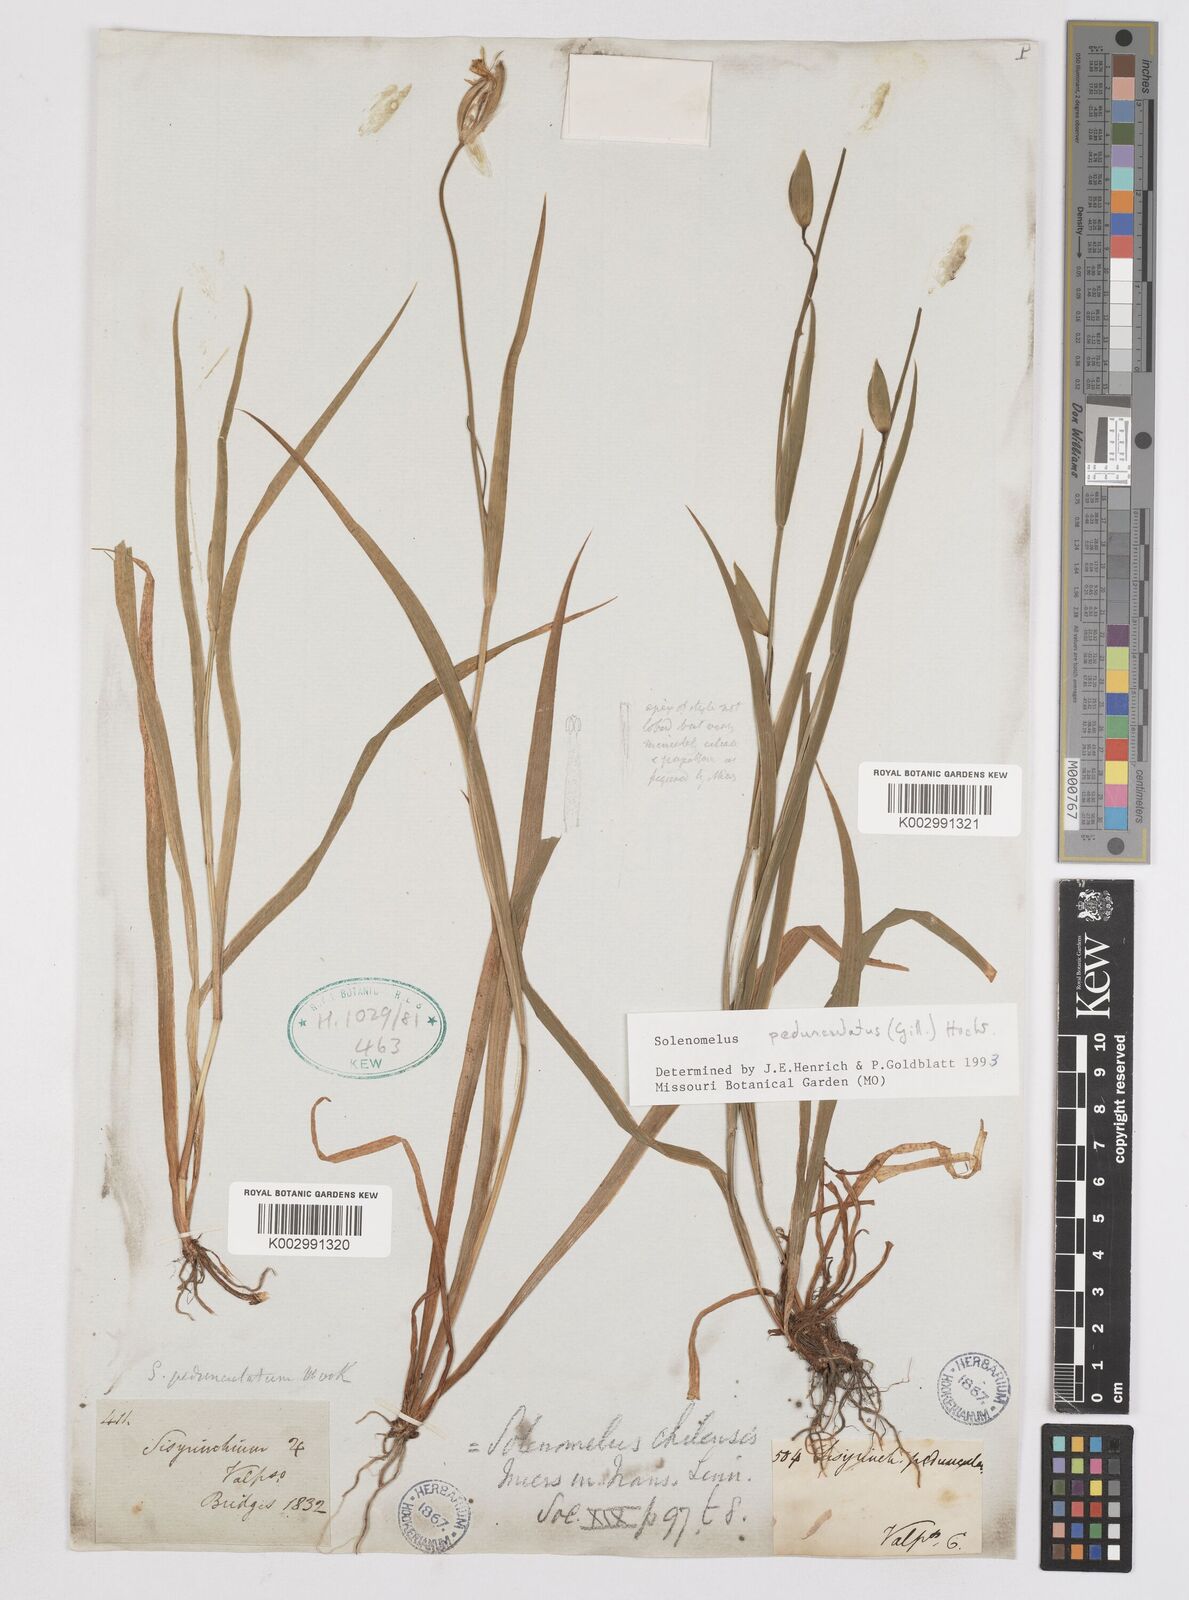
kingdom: Plantae
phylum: Tracheophyta
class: Liliopsida
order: Asparagales
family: Iridaceae
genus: Solenomelus
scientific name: Solenomelus pedunculatus
